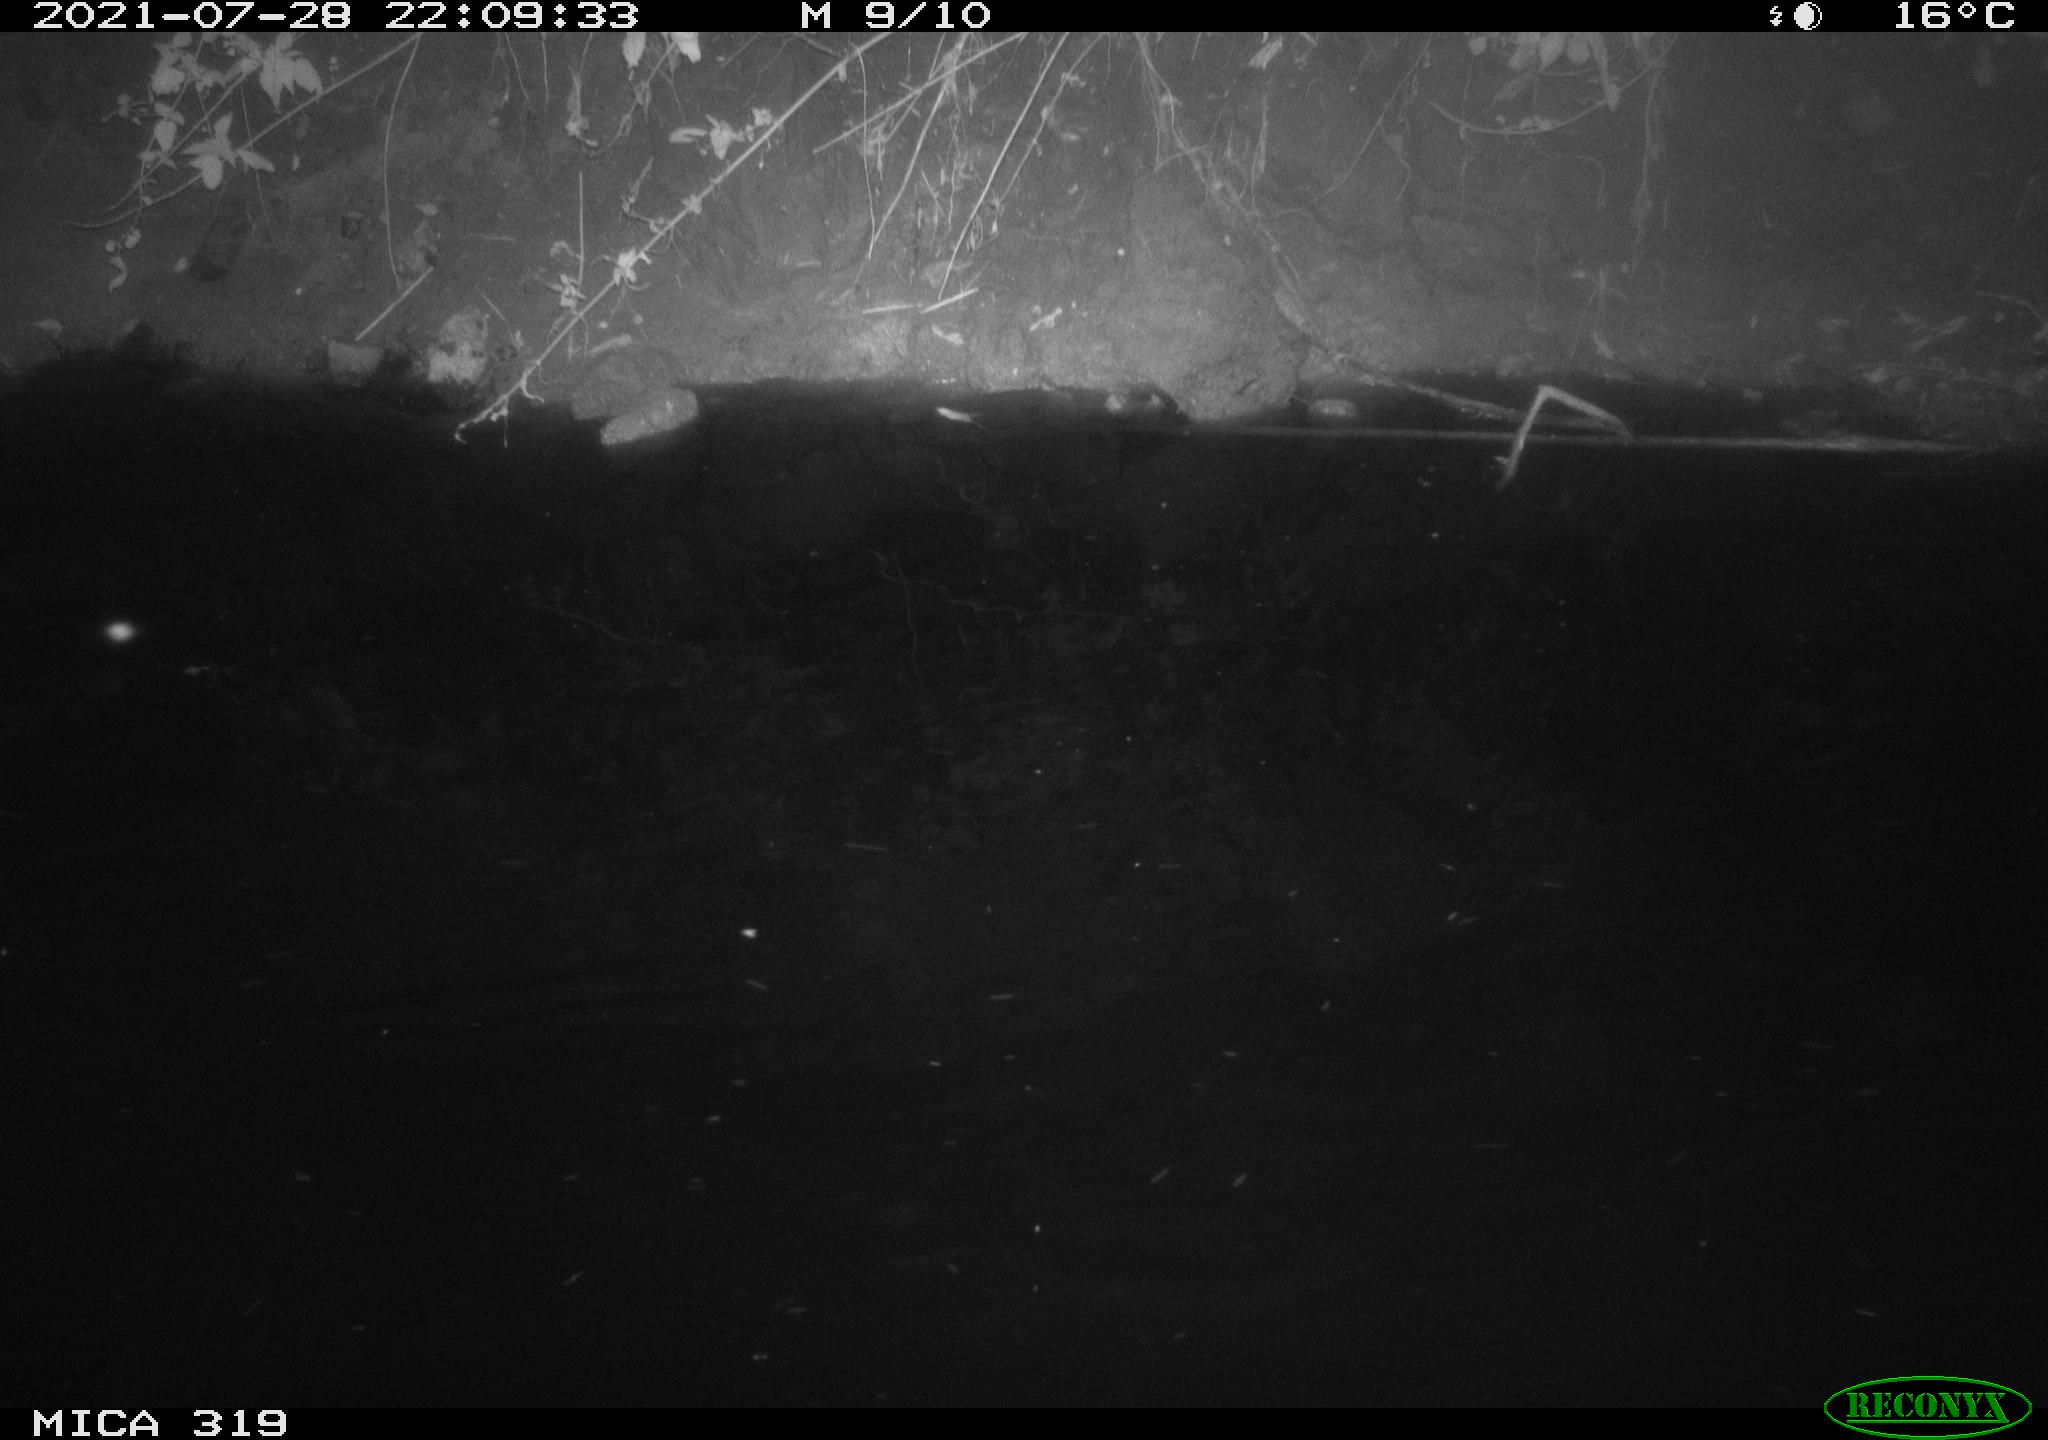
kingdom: Animalia
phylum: Chordata
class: Aves
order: Anseriformes
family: Anatidae
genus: Anas
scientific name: Anas platyrhynchos
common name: Mallard
